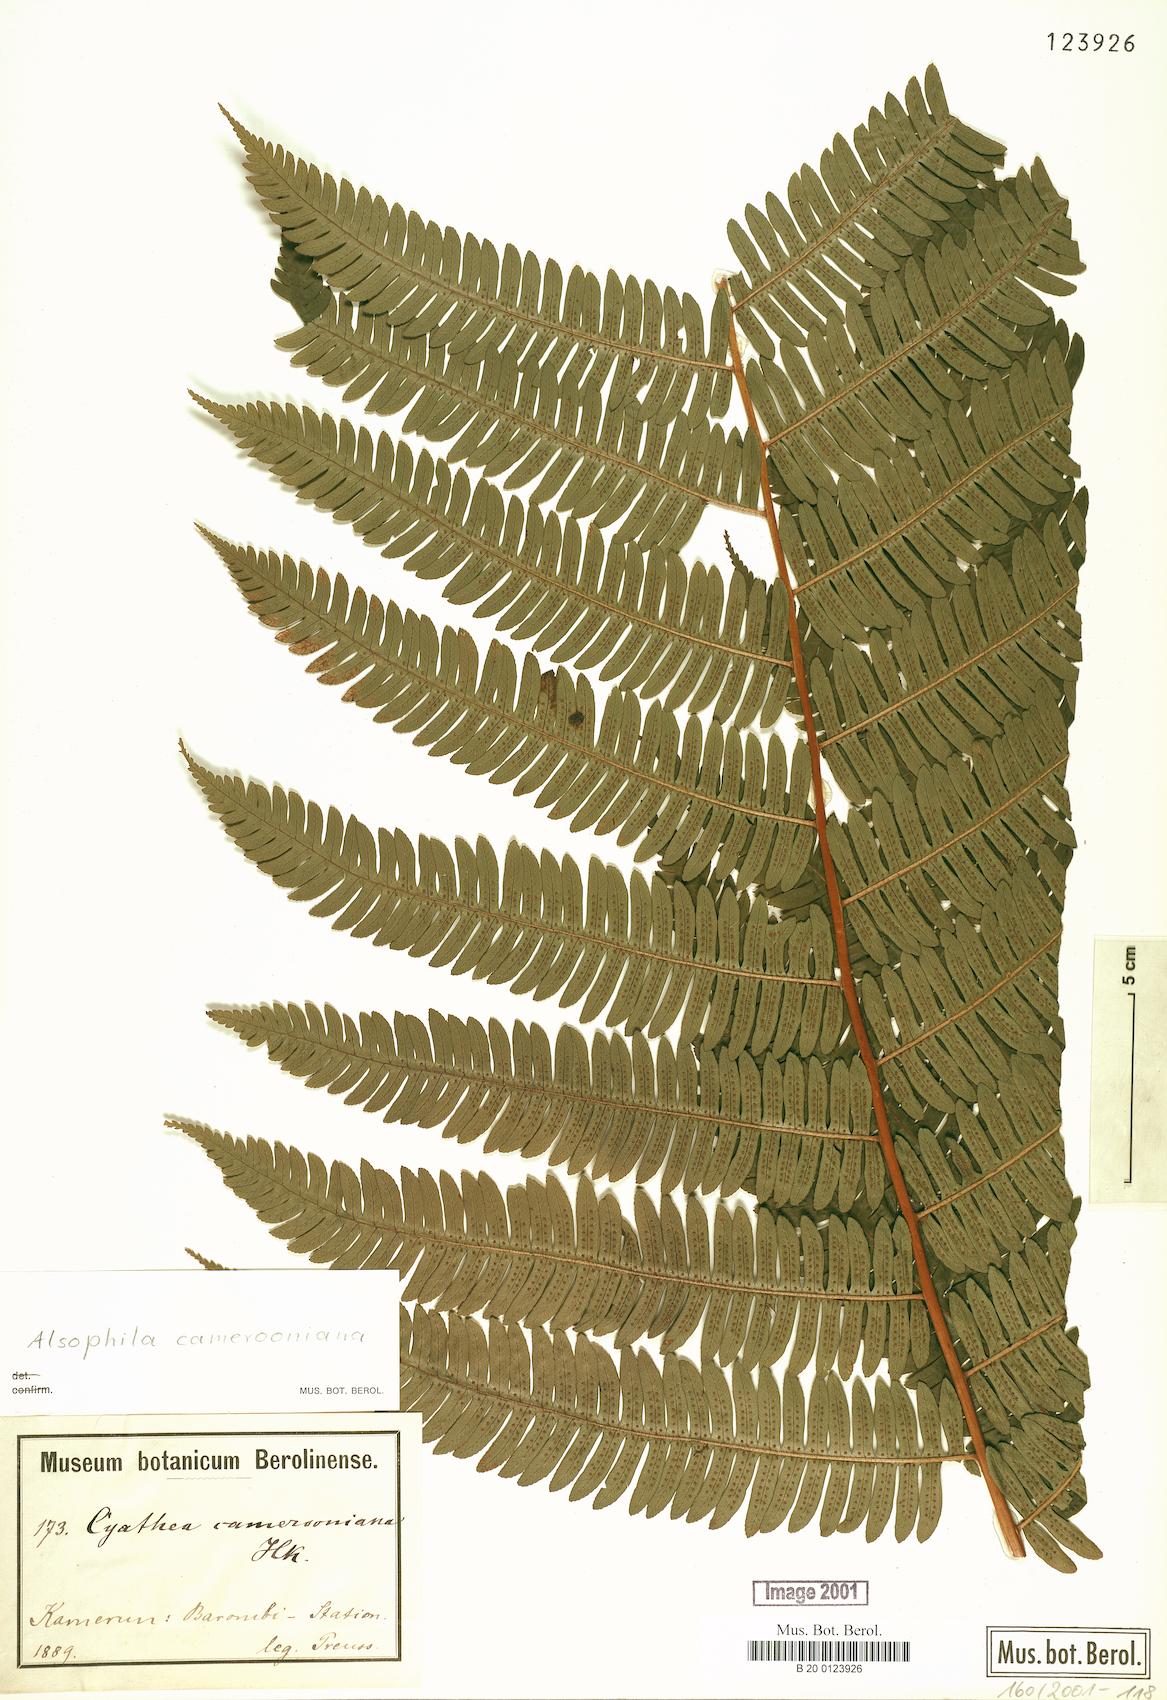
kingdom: Plantae
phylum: Tracheophyta
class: Polypodiopsida
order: Cyatheales
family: Cyatheaceae
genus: Alsophila
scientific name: Alsophila camerooniana
